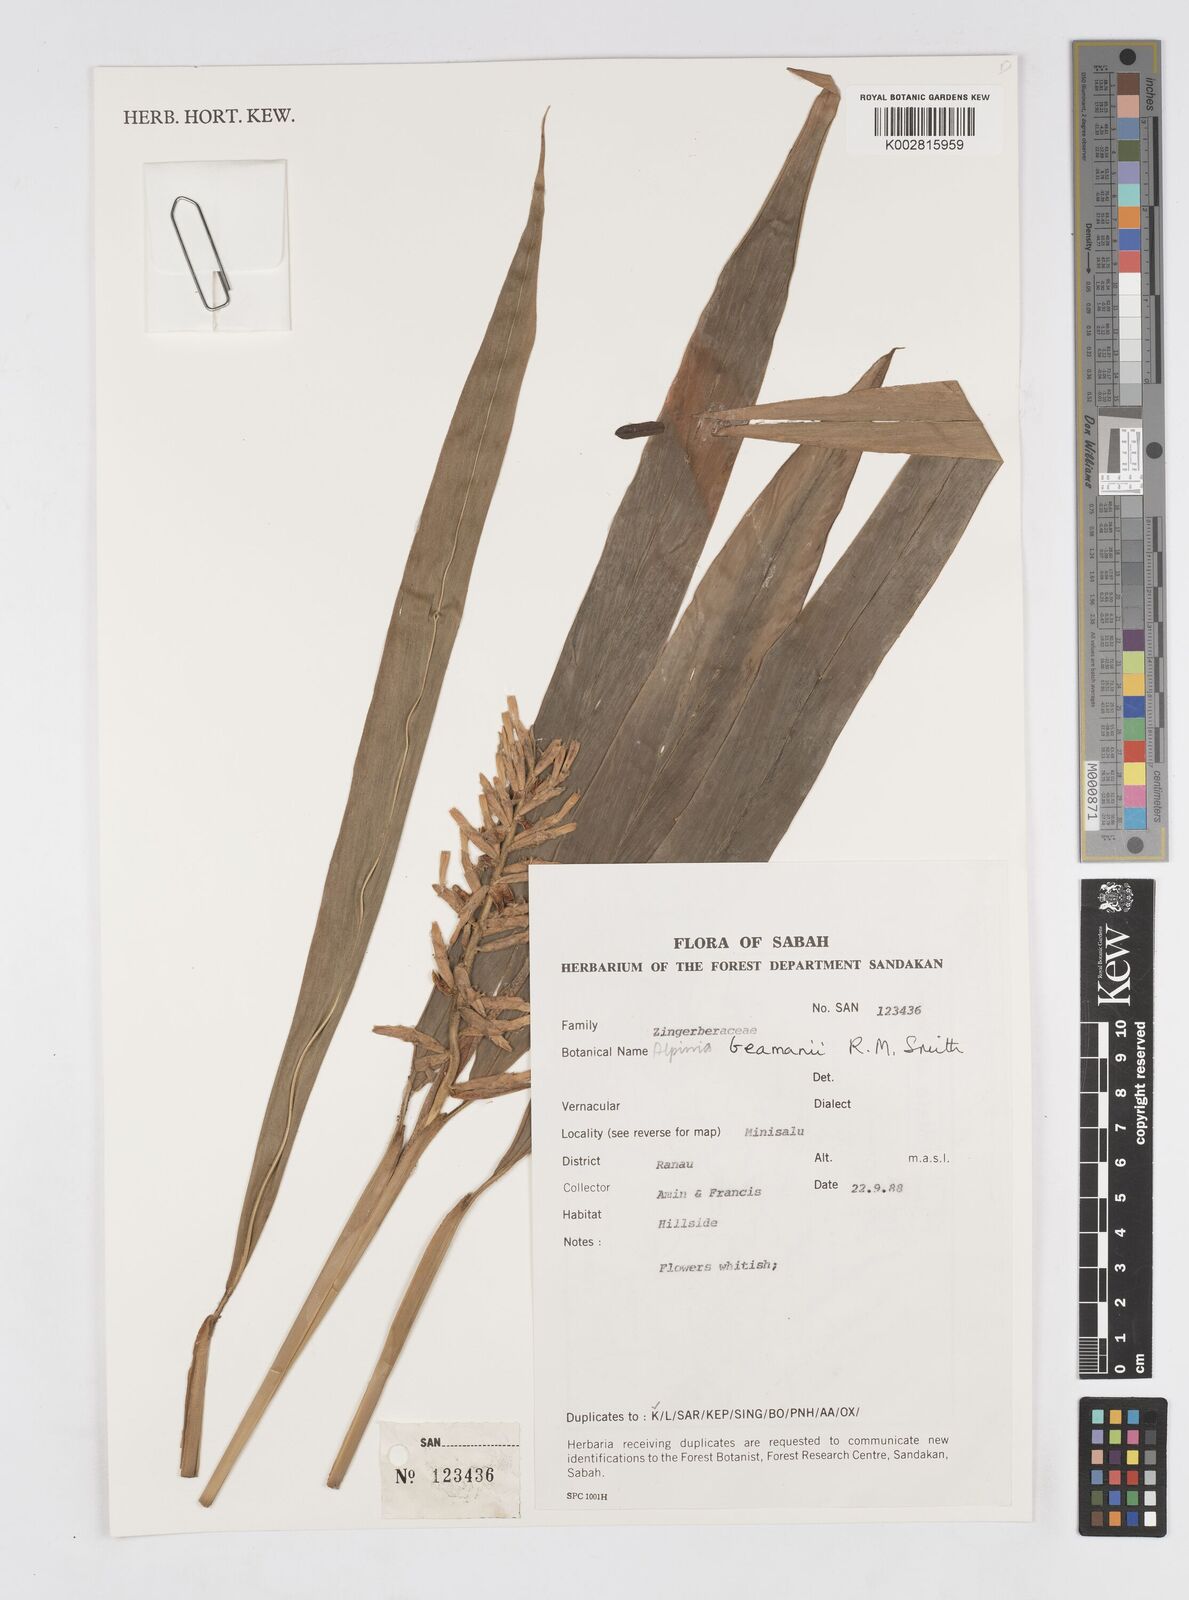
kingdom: Plantae
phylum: Tracheophyta
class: Liliopsida
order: Zingiberales
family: Zingiberaceae
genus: Alpinia
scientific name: Alpinia beamanii
